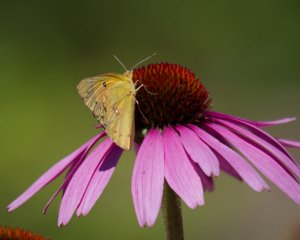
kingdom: Animalia
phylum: Arthropoda
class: Insecta
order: Lepidoptera
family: Pieridae
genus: Colias
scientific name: Colias eurytheme
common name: Orange Sulphur
